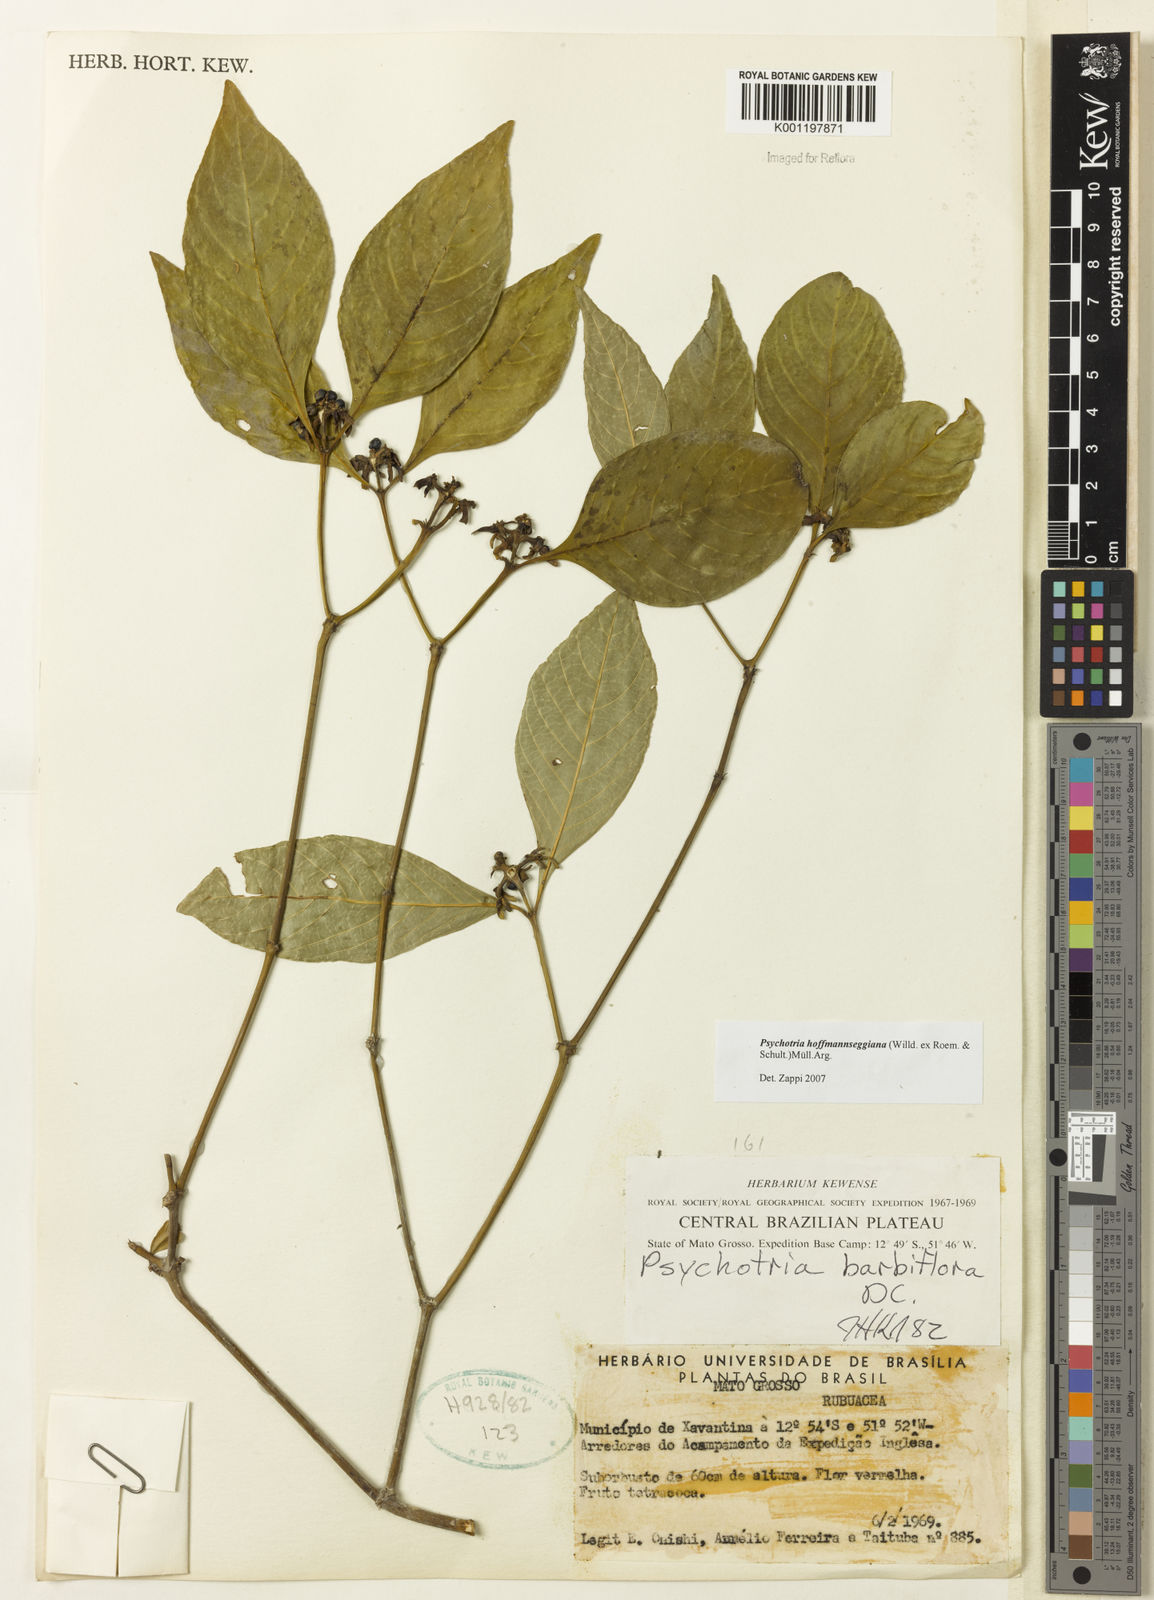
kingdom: Plantae
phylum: Tracheophyta
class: Magnoliopsida
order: Gentianales
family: Rubiaceae
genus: Psychotria
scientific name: Psychotria
